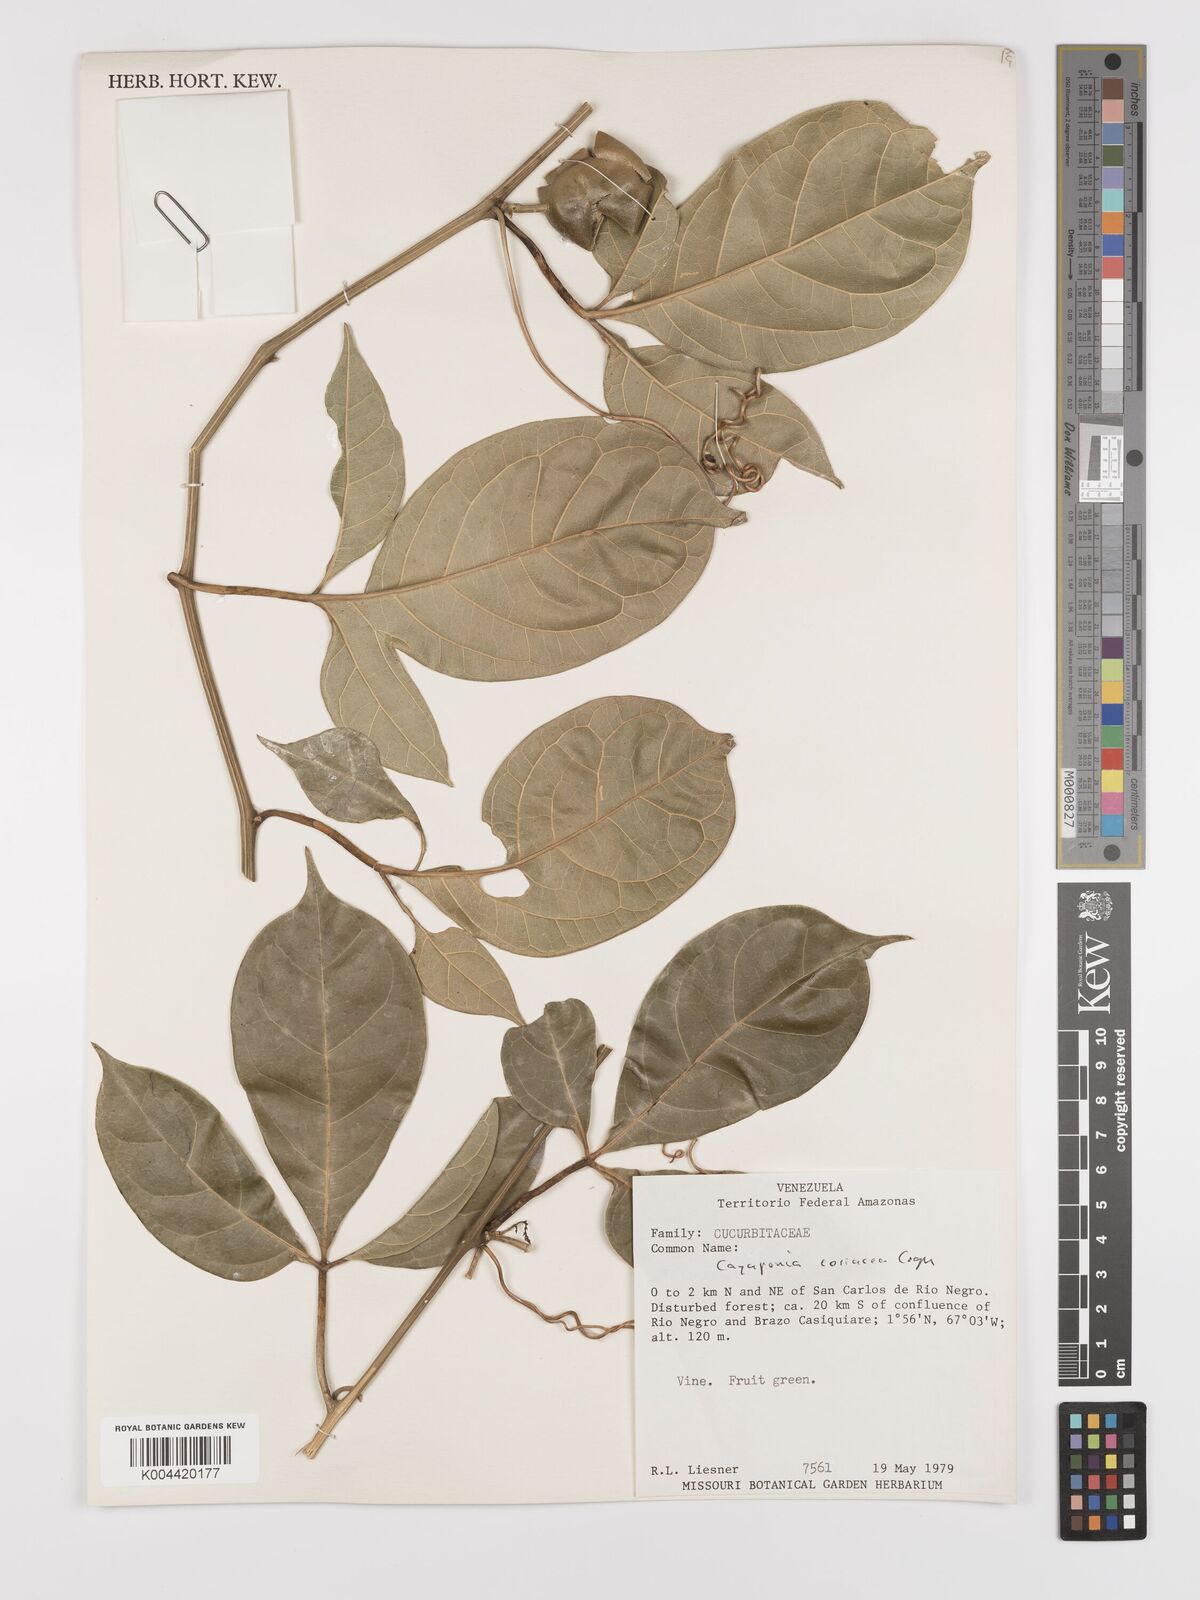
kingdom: Plantae
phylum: Tracheophyta
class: Magnoliopsida
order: Cucurbitales
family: Cucurbitaceae
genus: Cayaponia
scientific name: Cayaponia coriacea
